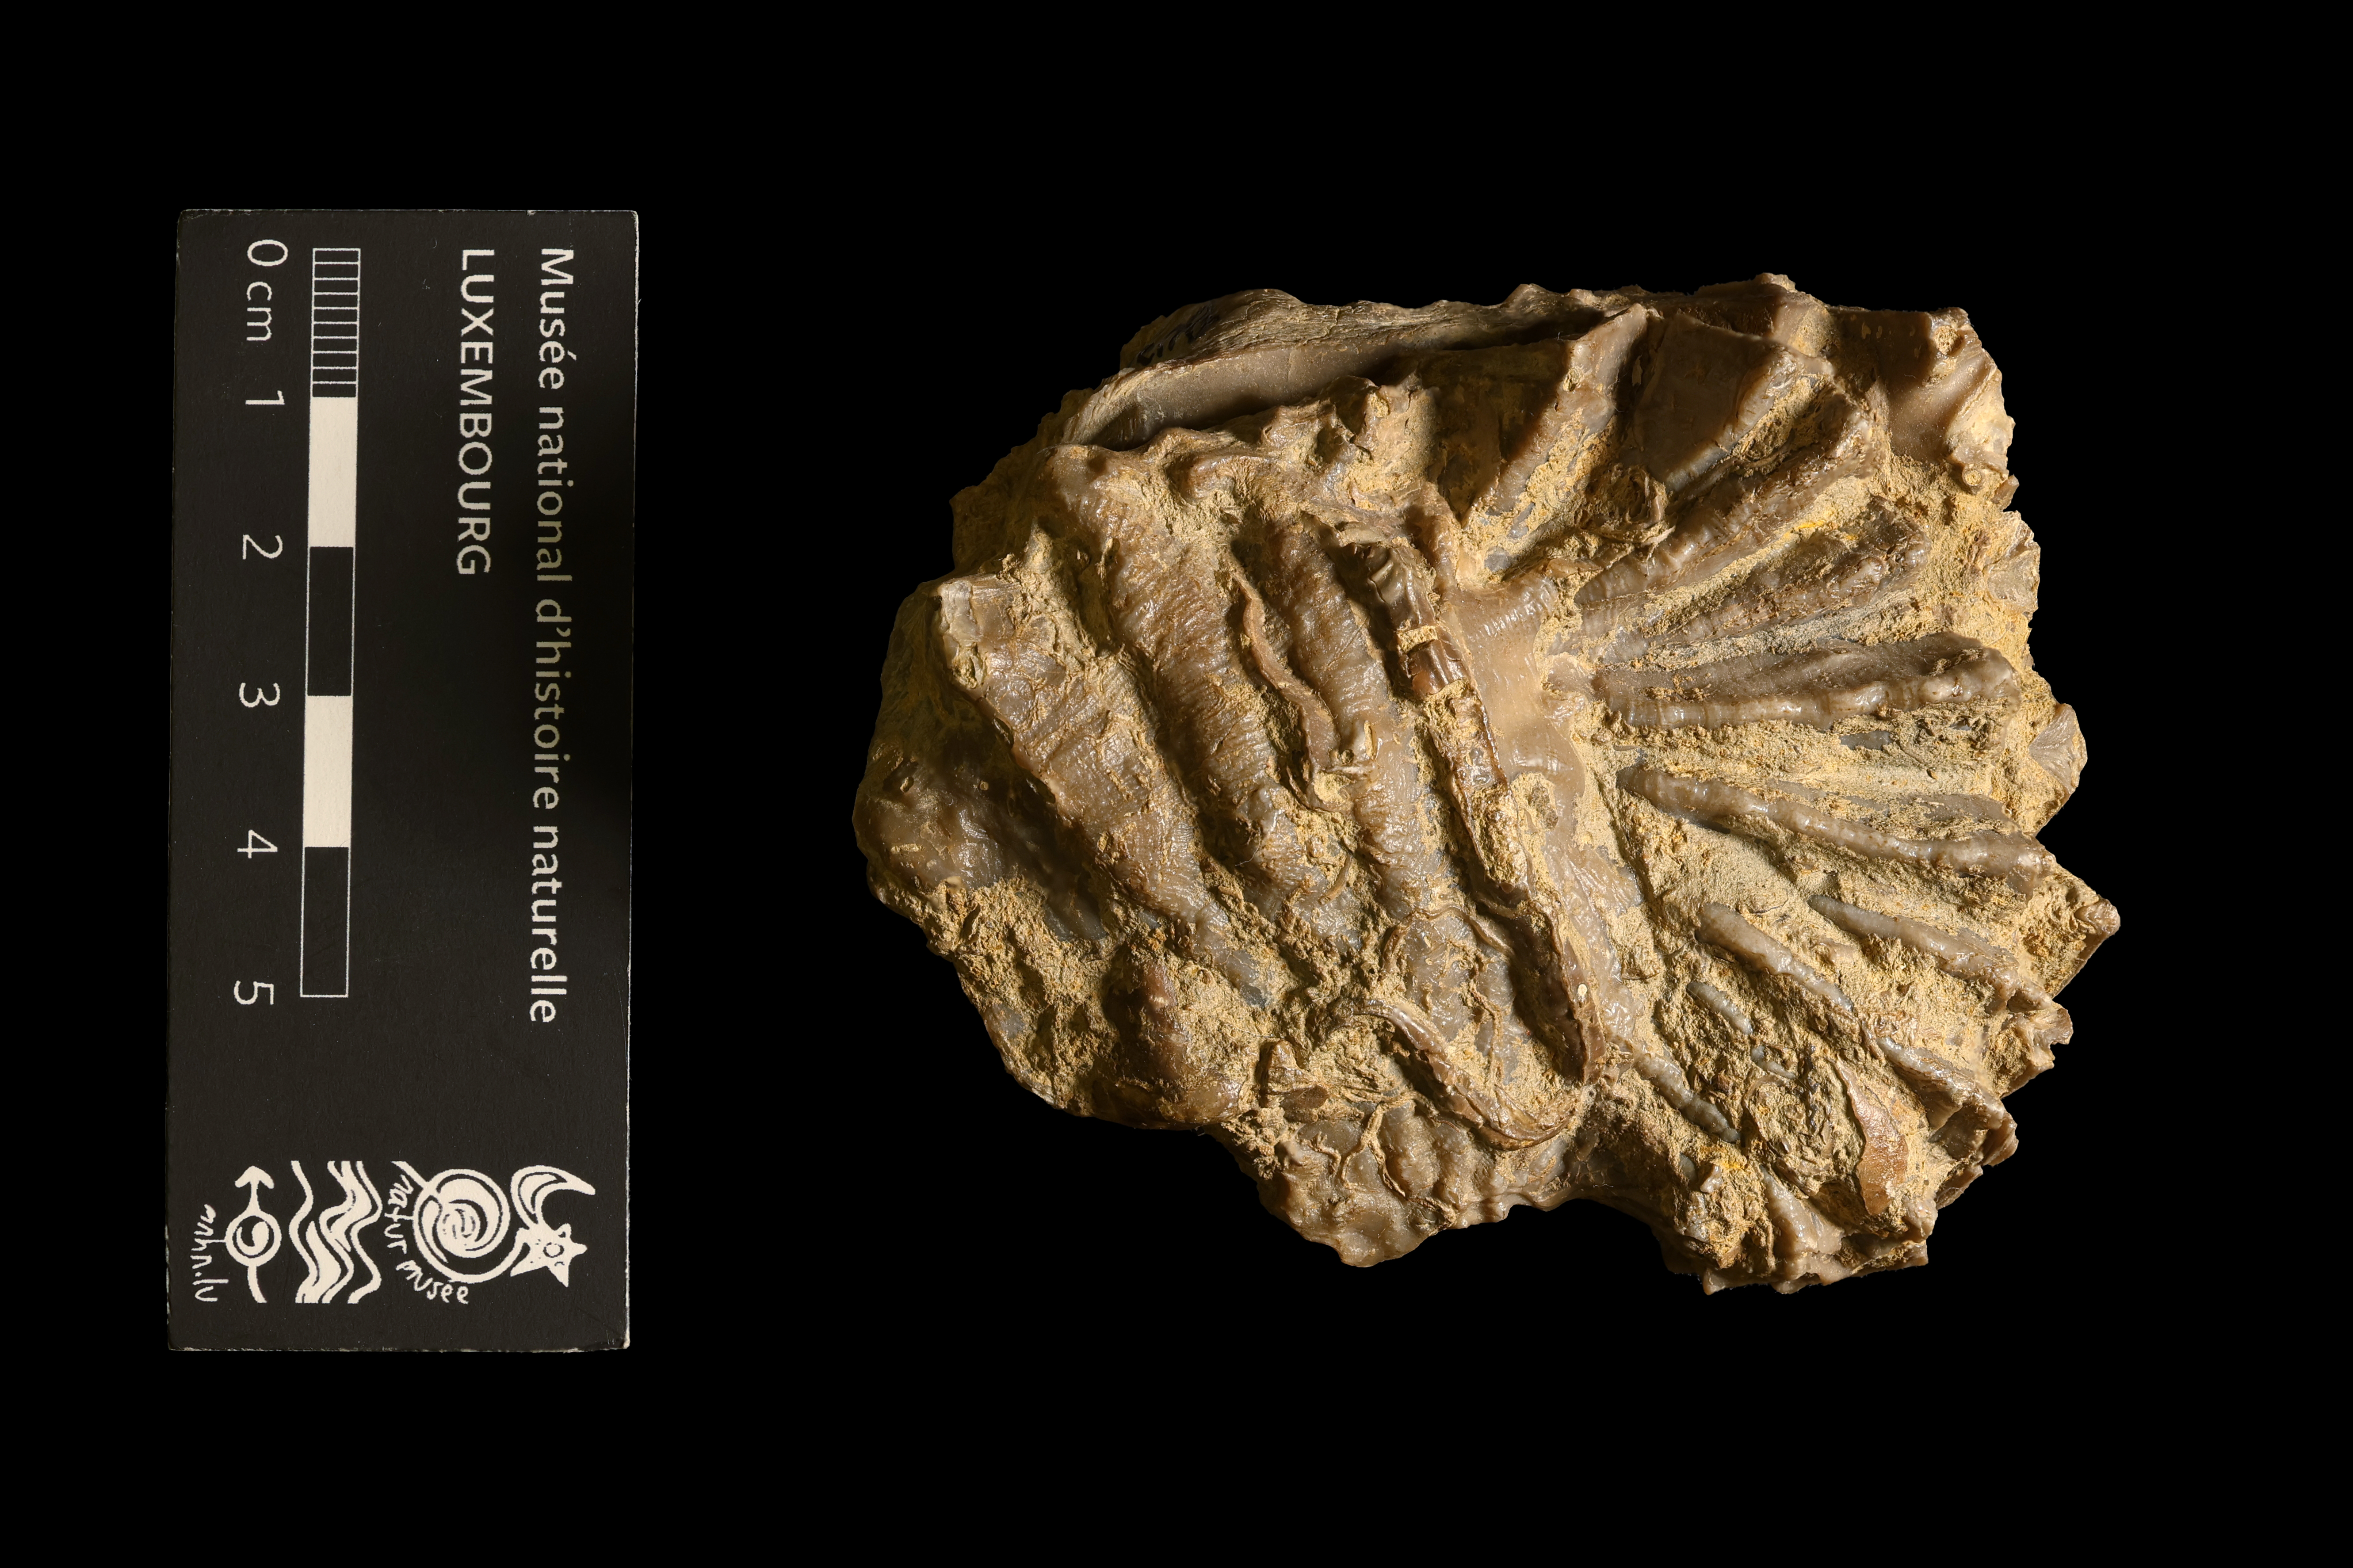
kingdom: Animalia
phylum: Mollusca
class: Bivalvia
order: Ostreida
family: Ostreidae
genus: Ostrea
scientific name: Ostrea marshii
